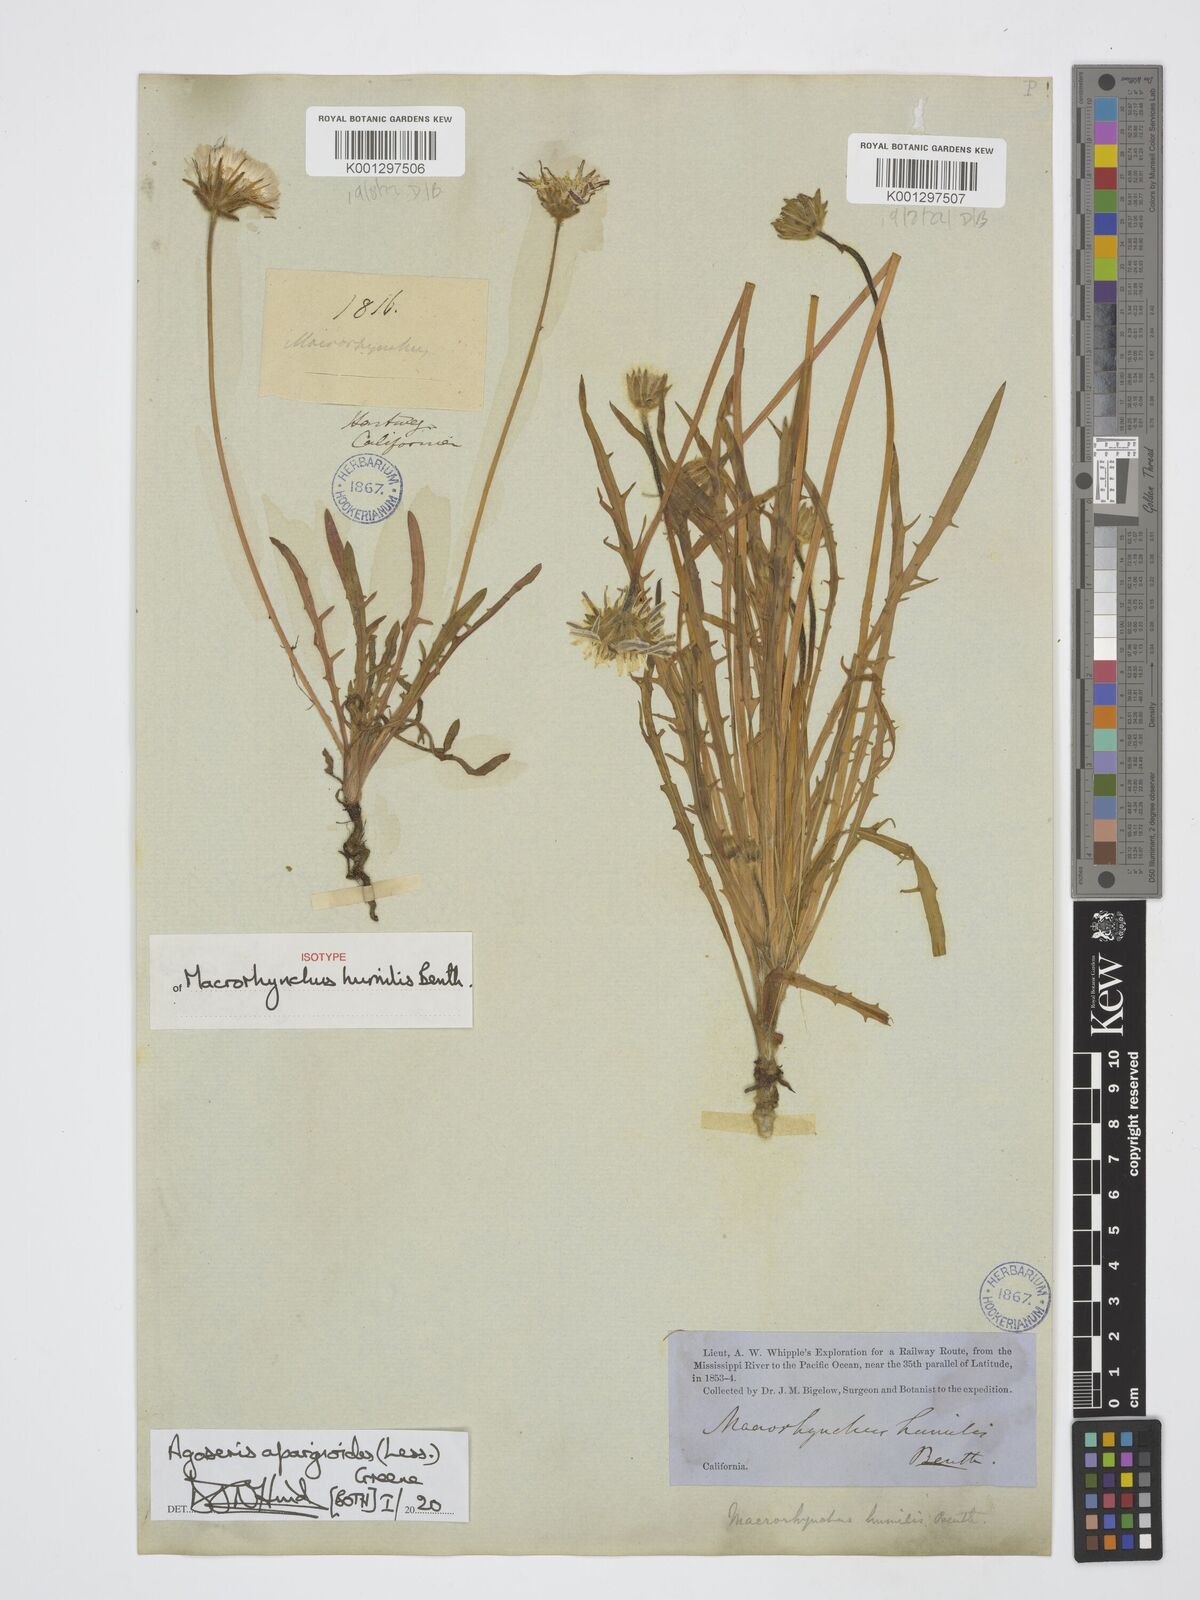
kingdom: Plantae
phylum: Tracheophyta
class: Magnoliopsida
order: Asterales
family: Asteraceae
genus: Agoseris
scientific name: Agoseris apargioides
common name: Point reyes agoseris
